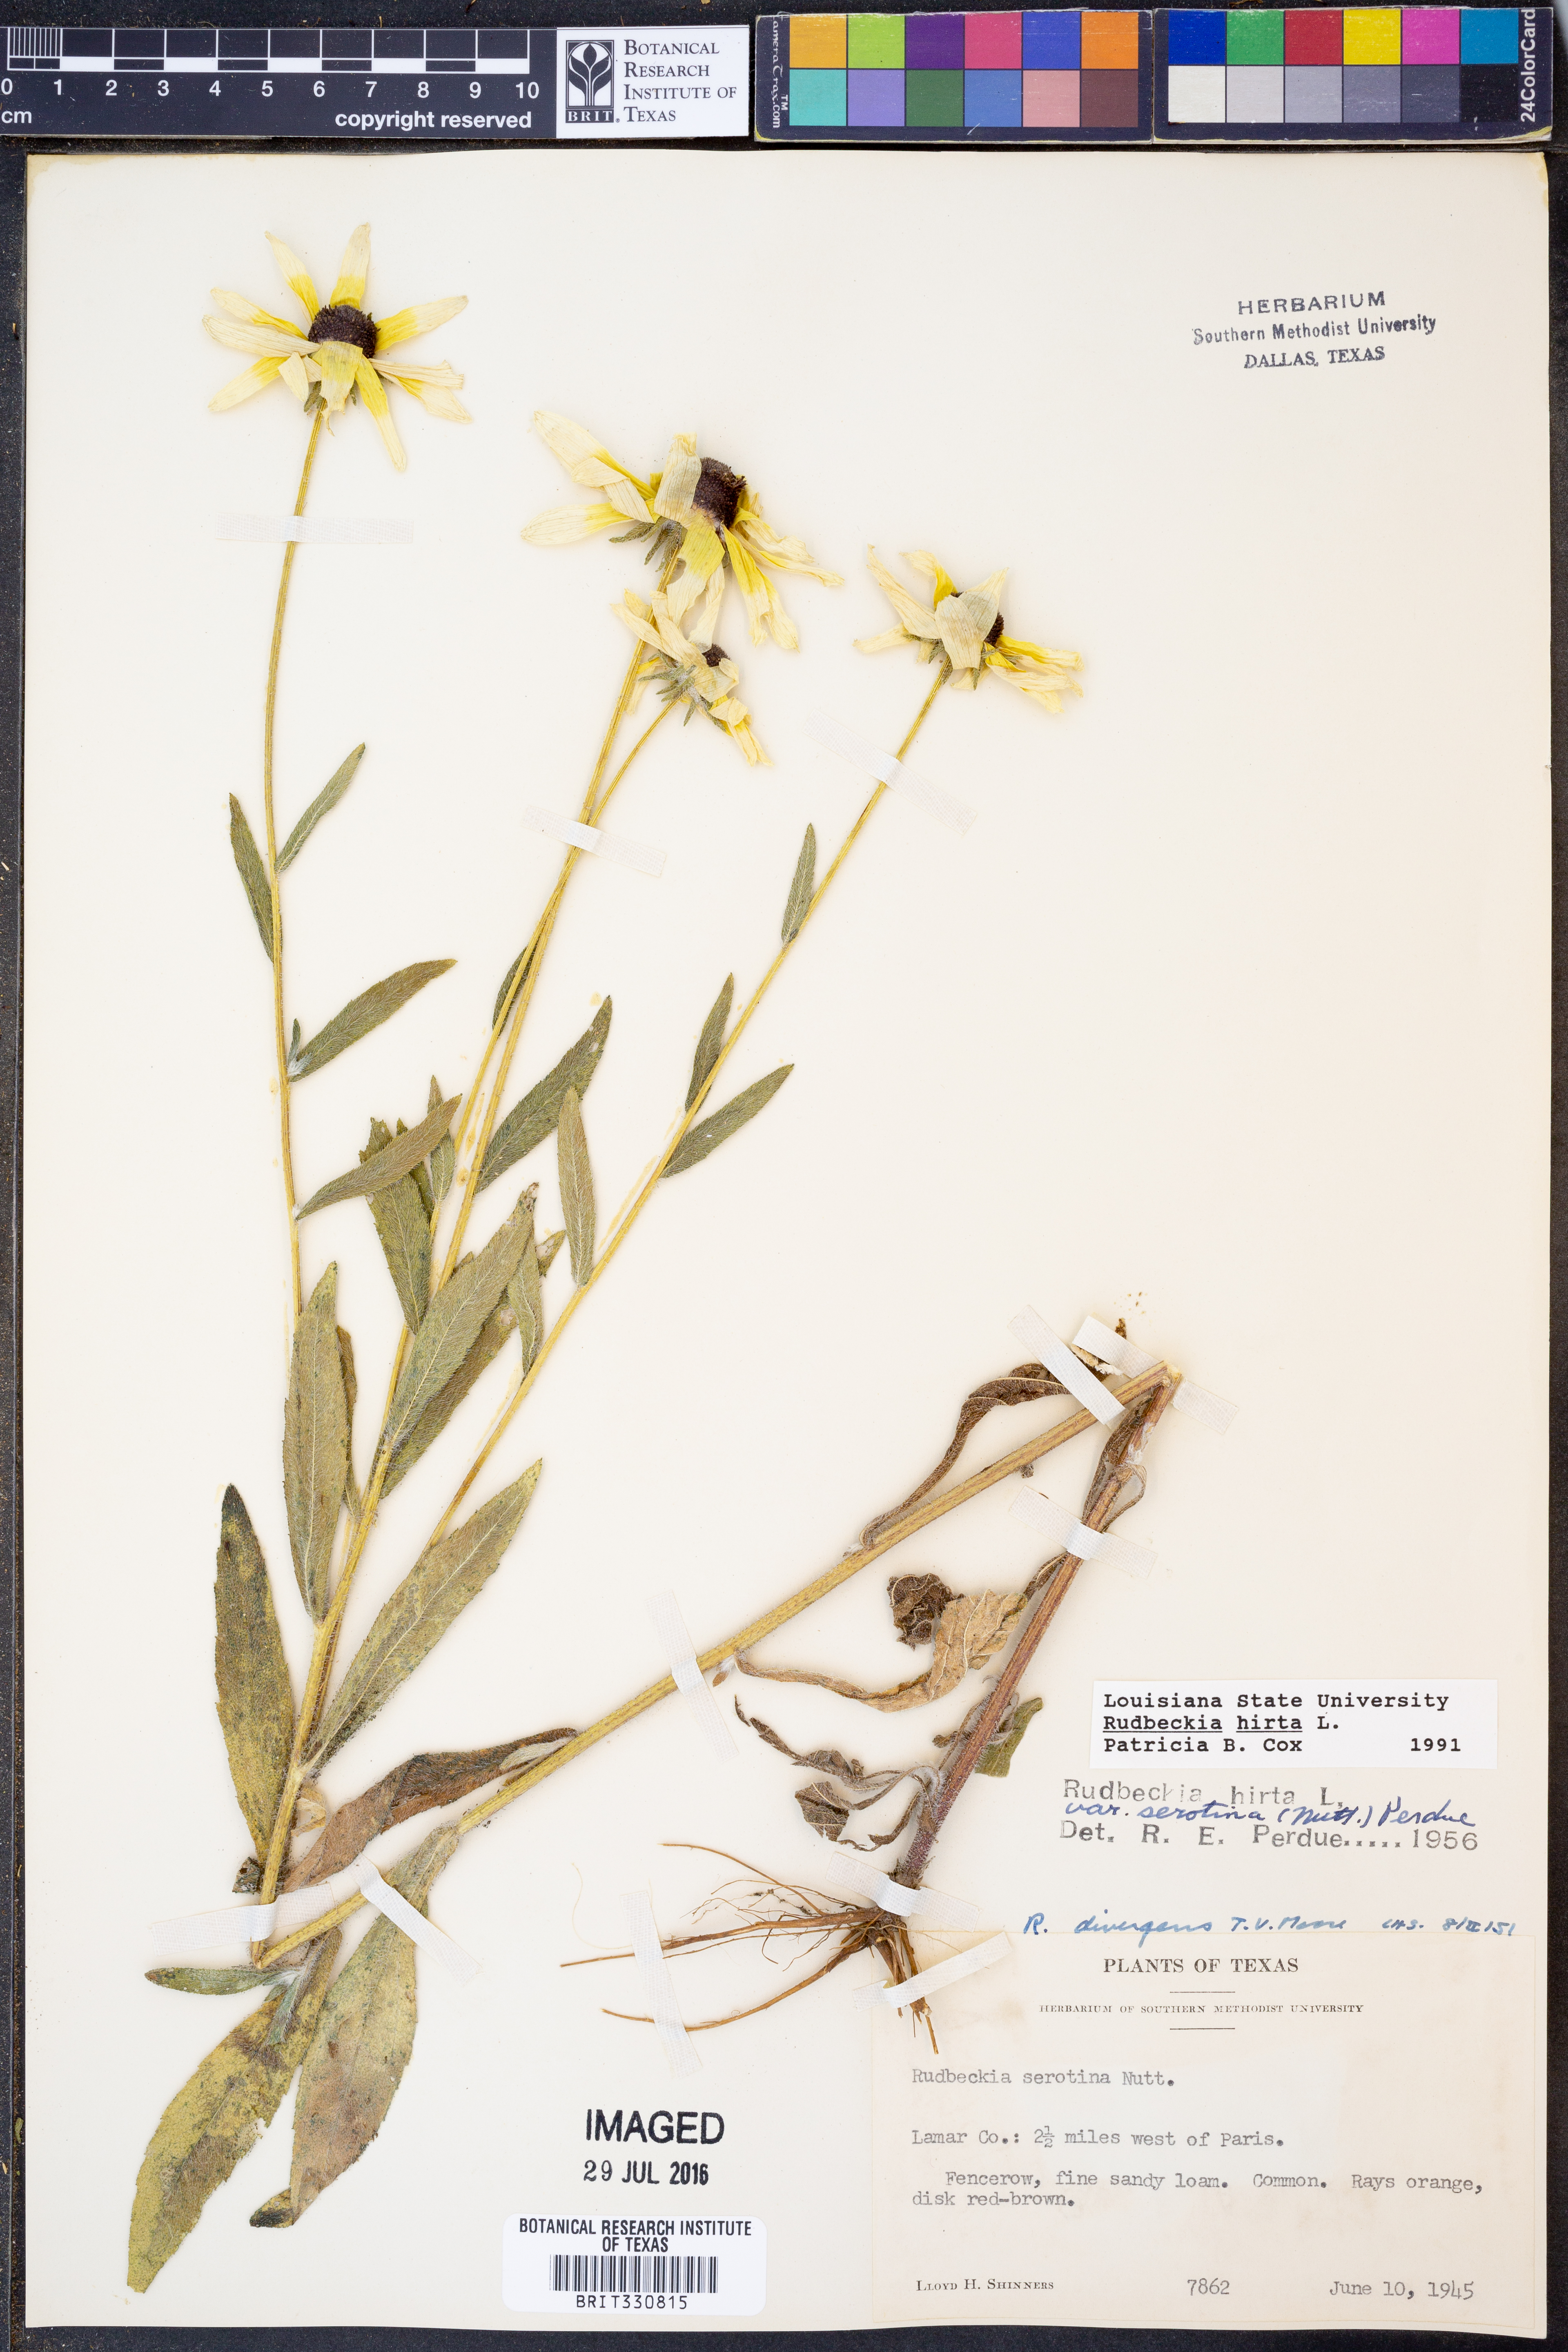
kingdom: Plantae
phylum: Tracheophyta
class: Magnoliopsida
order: Asterales
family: Asteraceae
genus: Rudbeckia
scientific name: Rudbeckia hirta
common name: Black-eyed-susan
